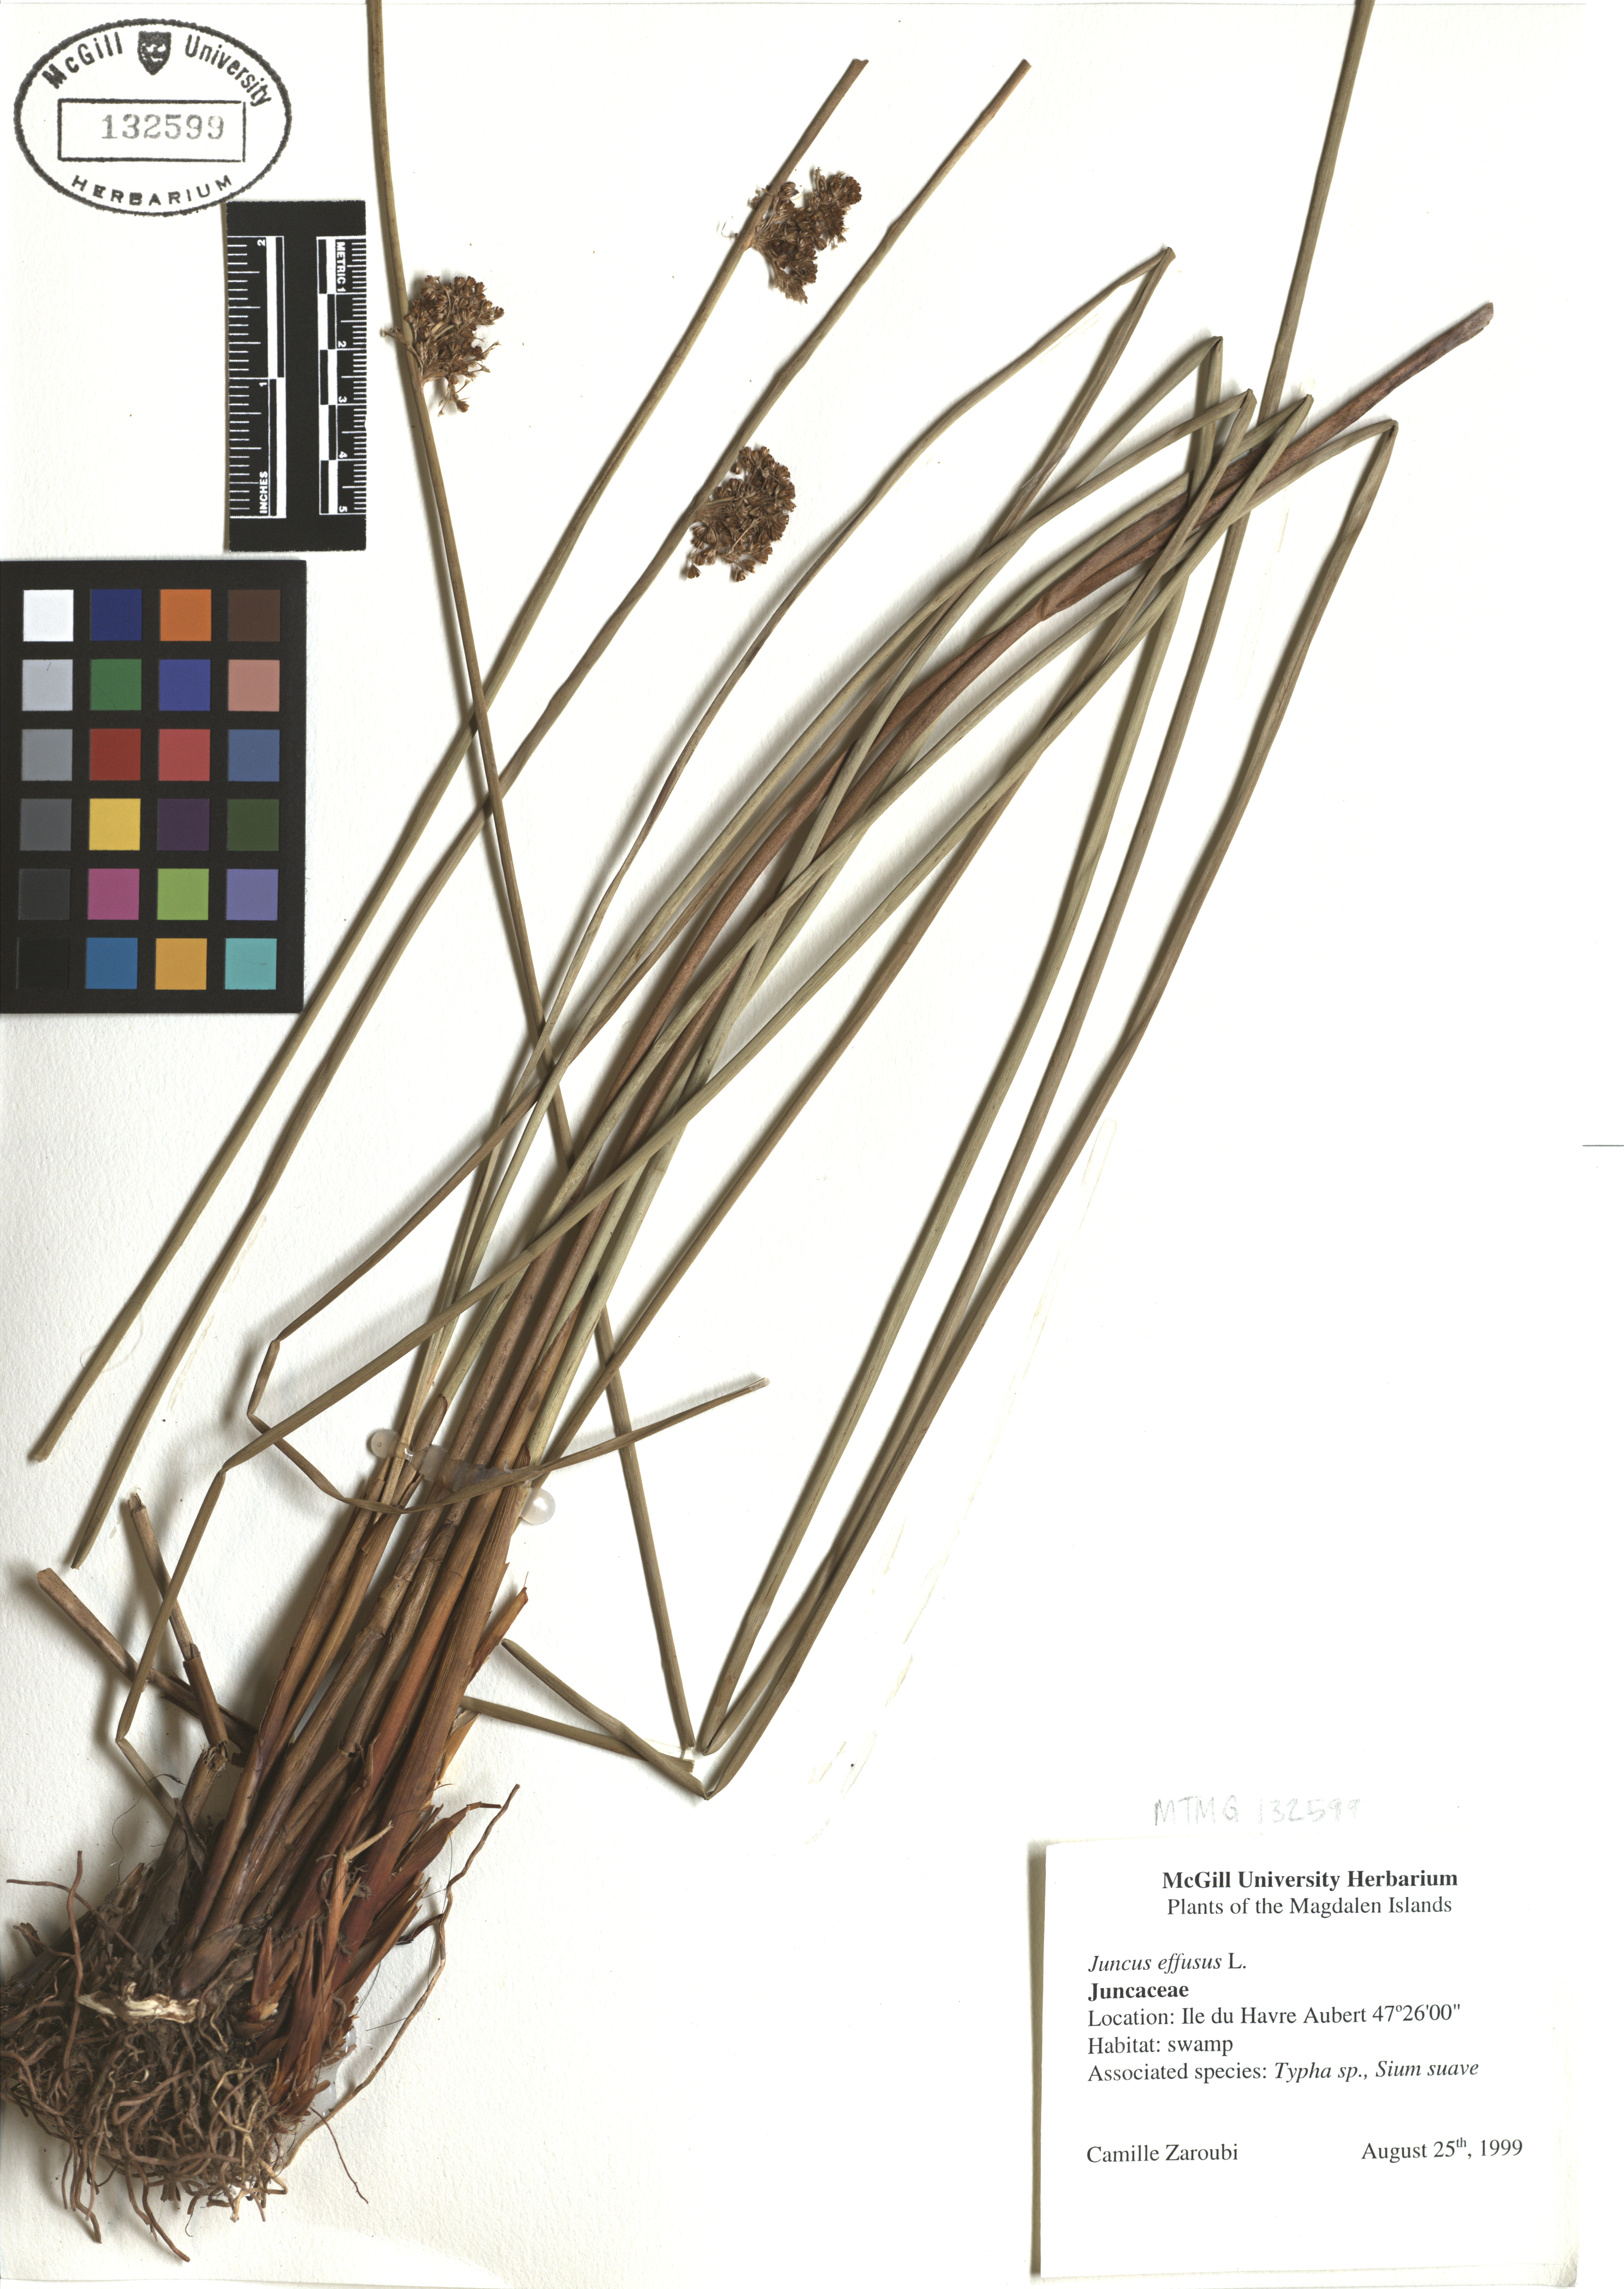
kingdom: Plantae
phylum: Tracheophyta
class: Liliopsida
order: Poales
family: Juncaceae
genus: Juncus
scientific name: Juncus effusus
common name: Soft rush
